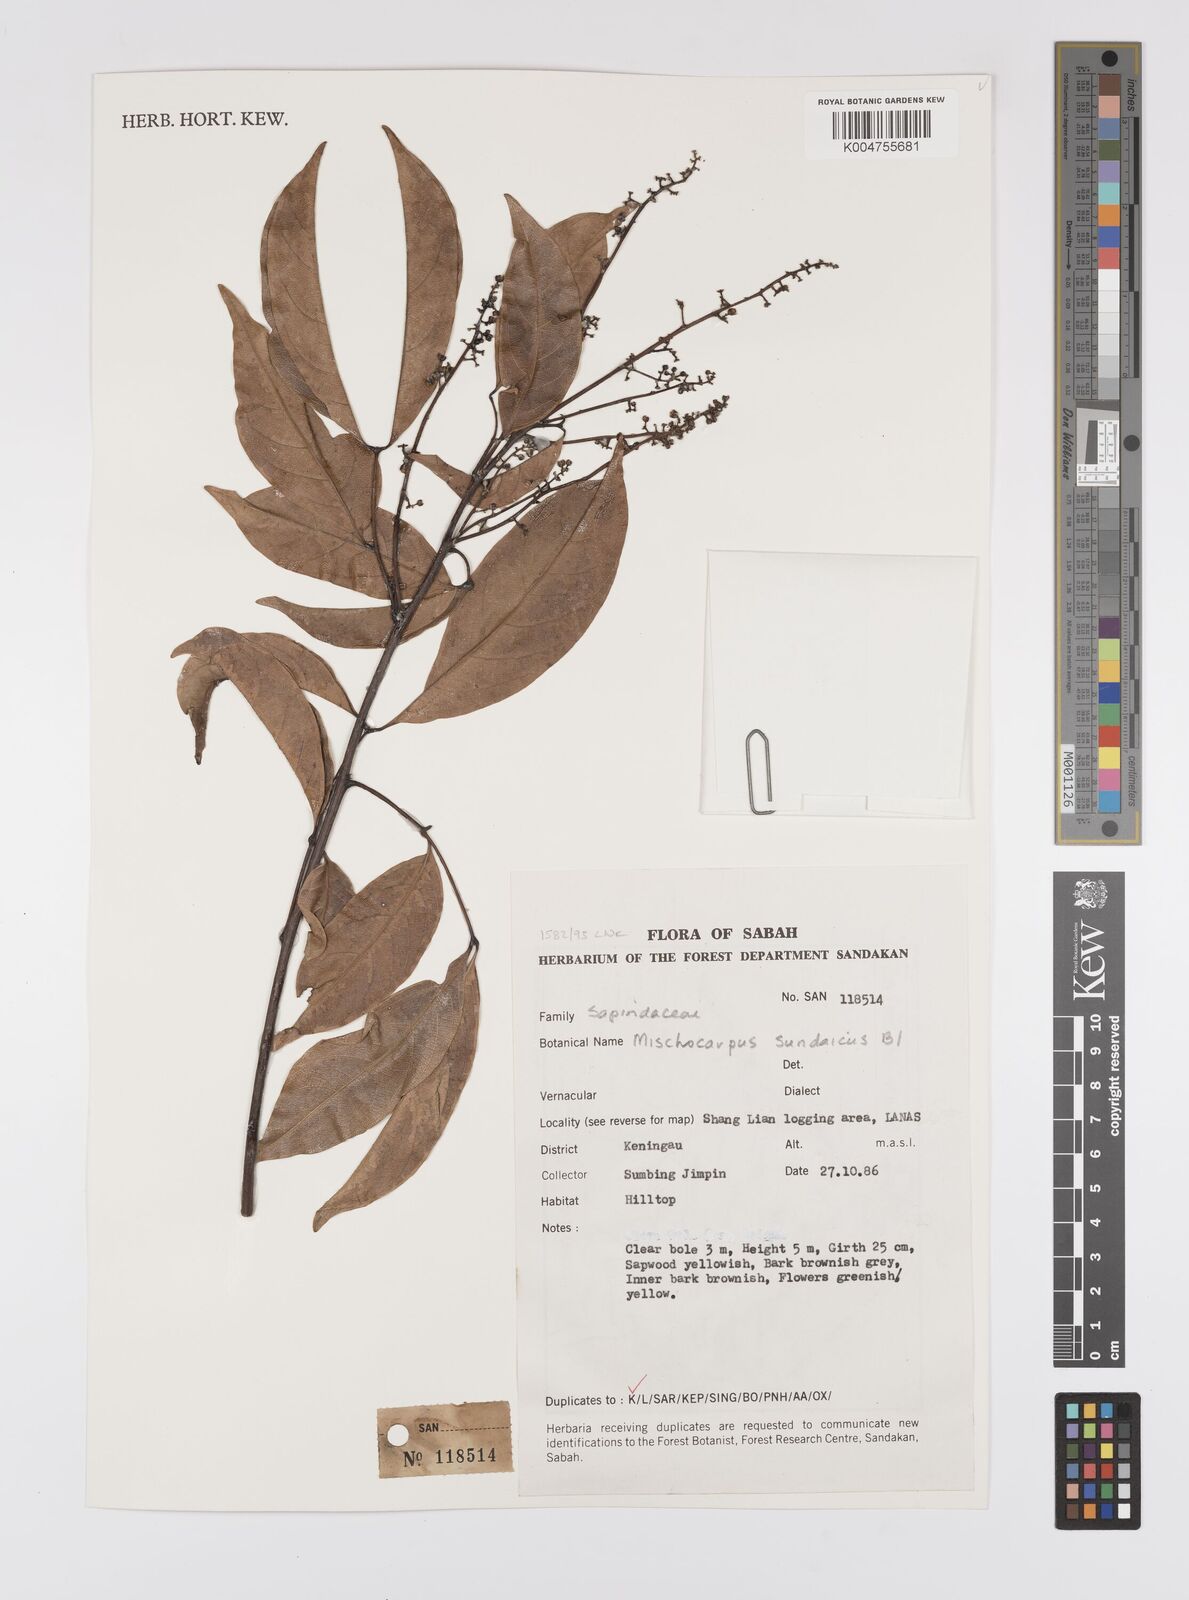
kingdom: Plantae
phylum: Tracheophyta
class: Magnoliopsida
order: Sapindales
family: Sapindaceae
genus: Mischocarpus
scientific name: Mischocarpus sundaicus
